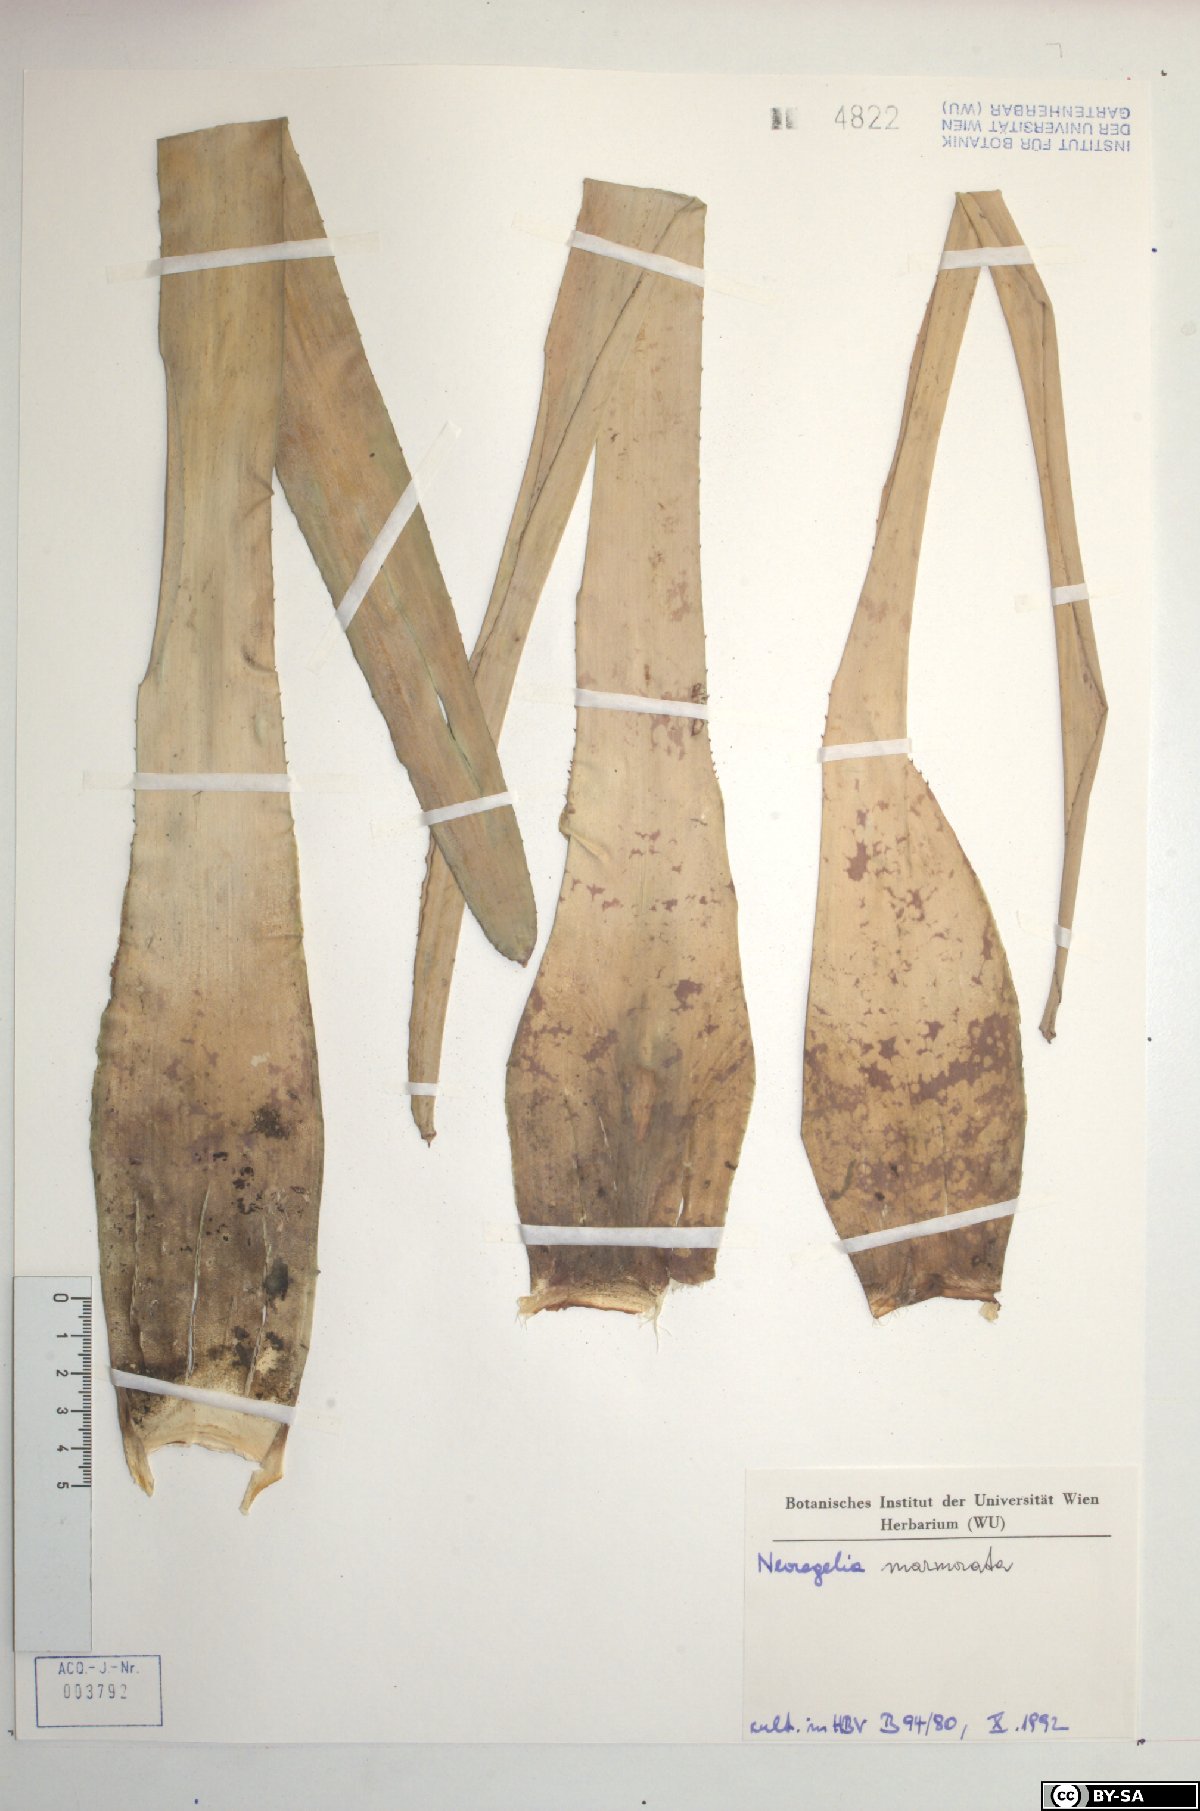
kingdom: Plantae
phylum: Tracheophyta
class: Liliopsida
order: Poales
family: Bromeliaceae
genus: Neoregelia
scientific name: Neoregelia marmorata
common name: Marbleplant
